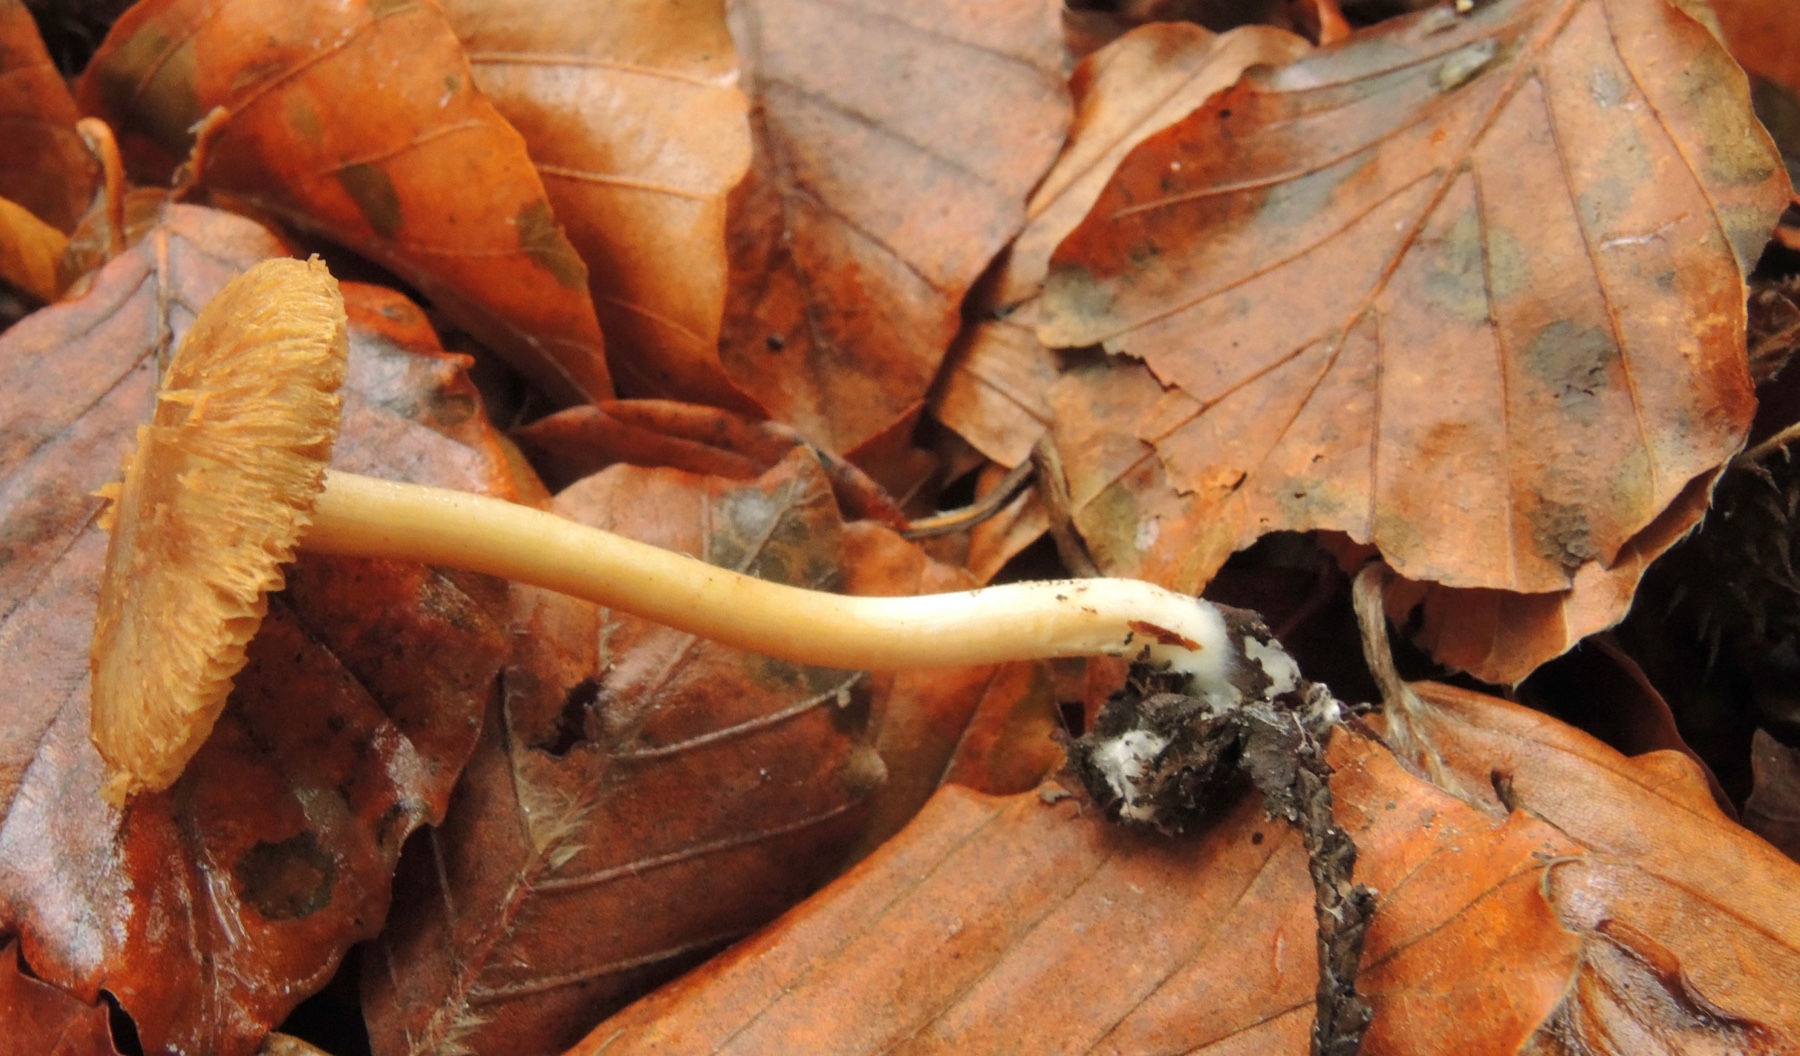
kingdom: Fungi
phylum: Basidiomycota
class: Agaricomycetes
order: Agaricales
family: Inocybaceae
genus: Inocybe
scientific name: Inocybe hirtella
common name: mandel-trævlhat
